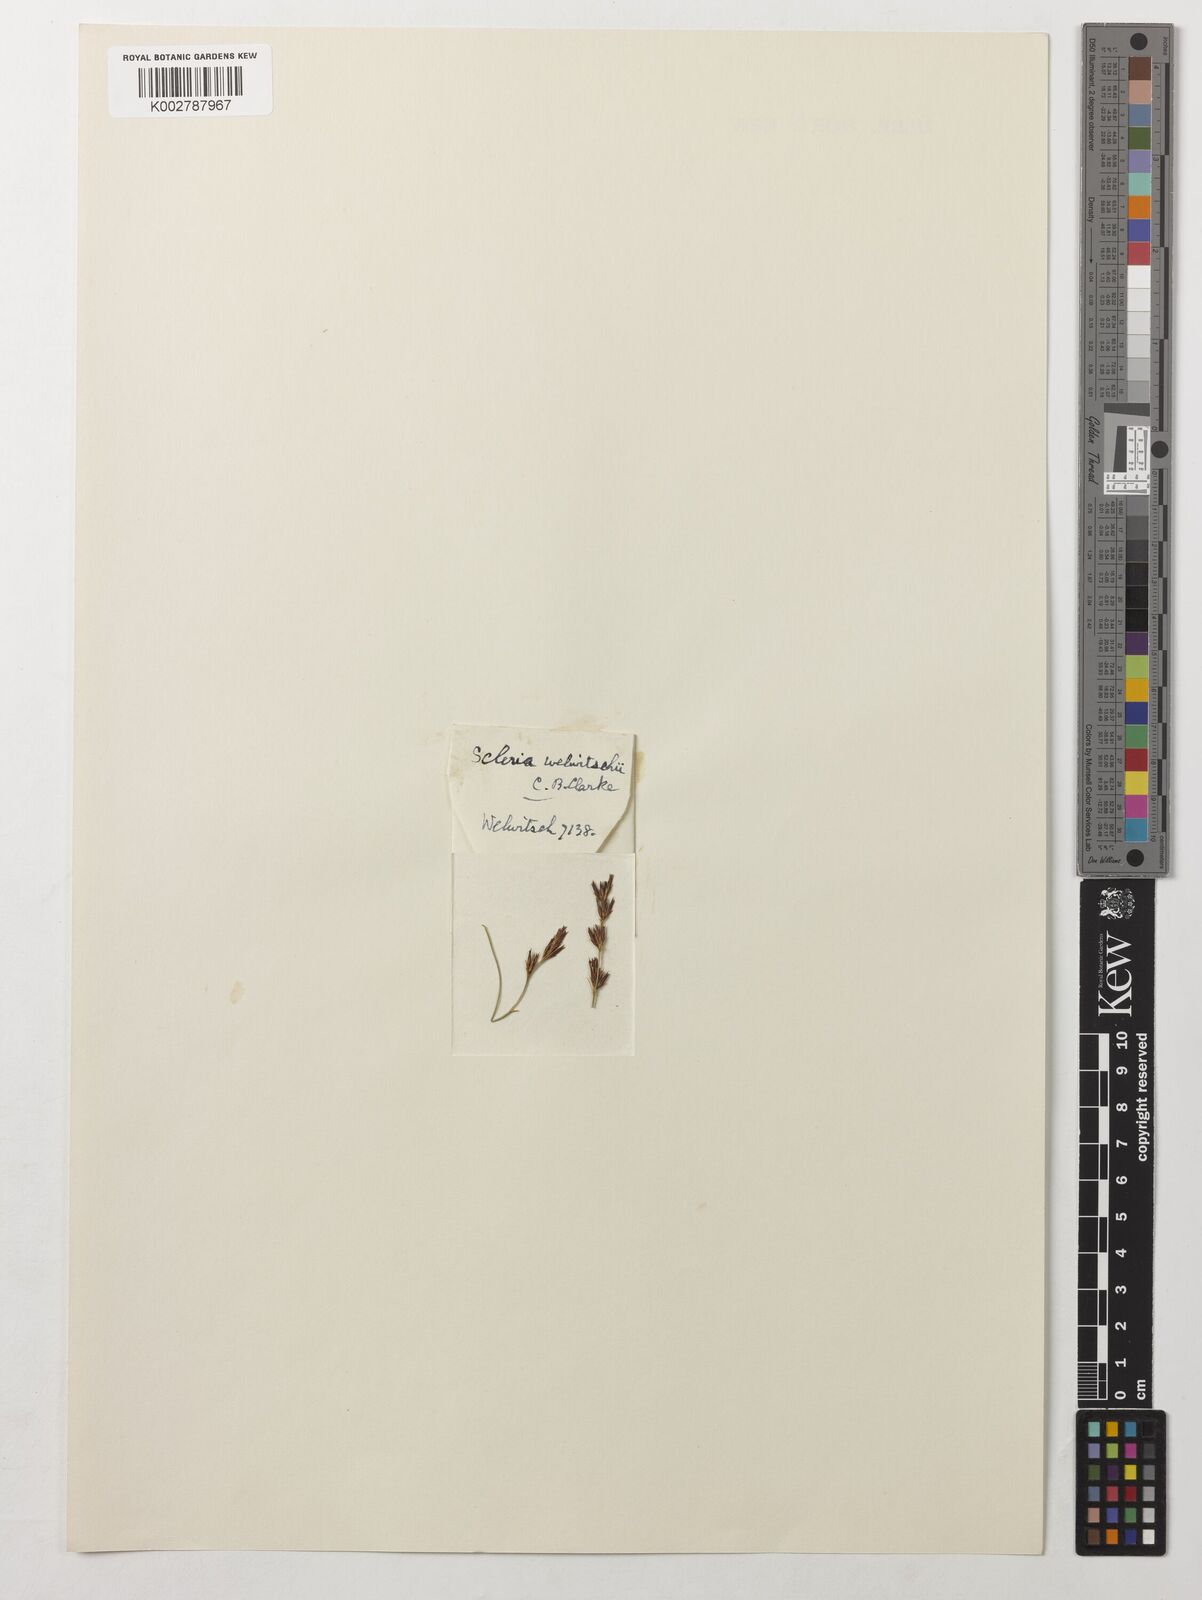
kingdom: Plantae
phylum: Tracheophyta
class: Liliopsida
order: Poales
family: Cyperaceae
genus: Scleria
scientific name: Scleria welwitschii
